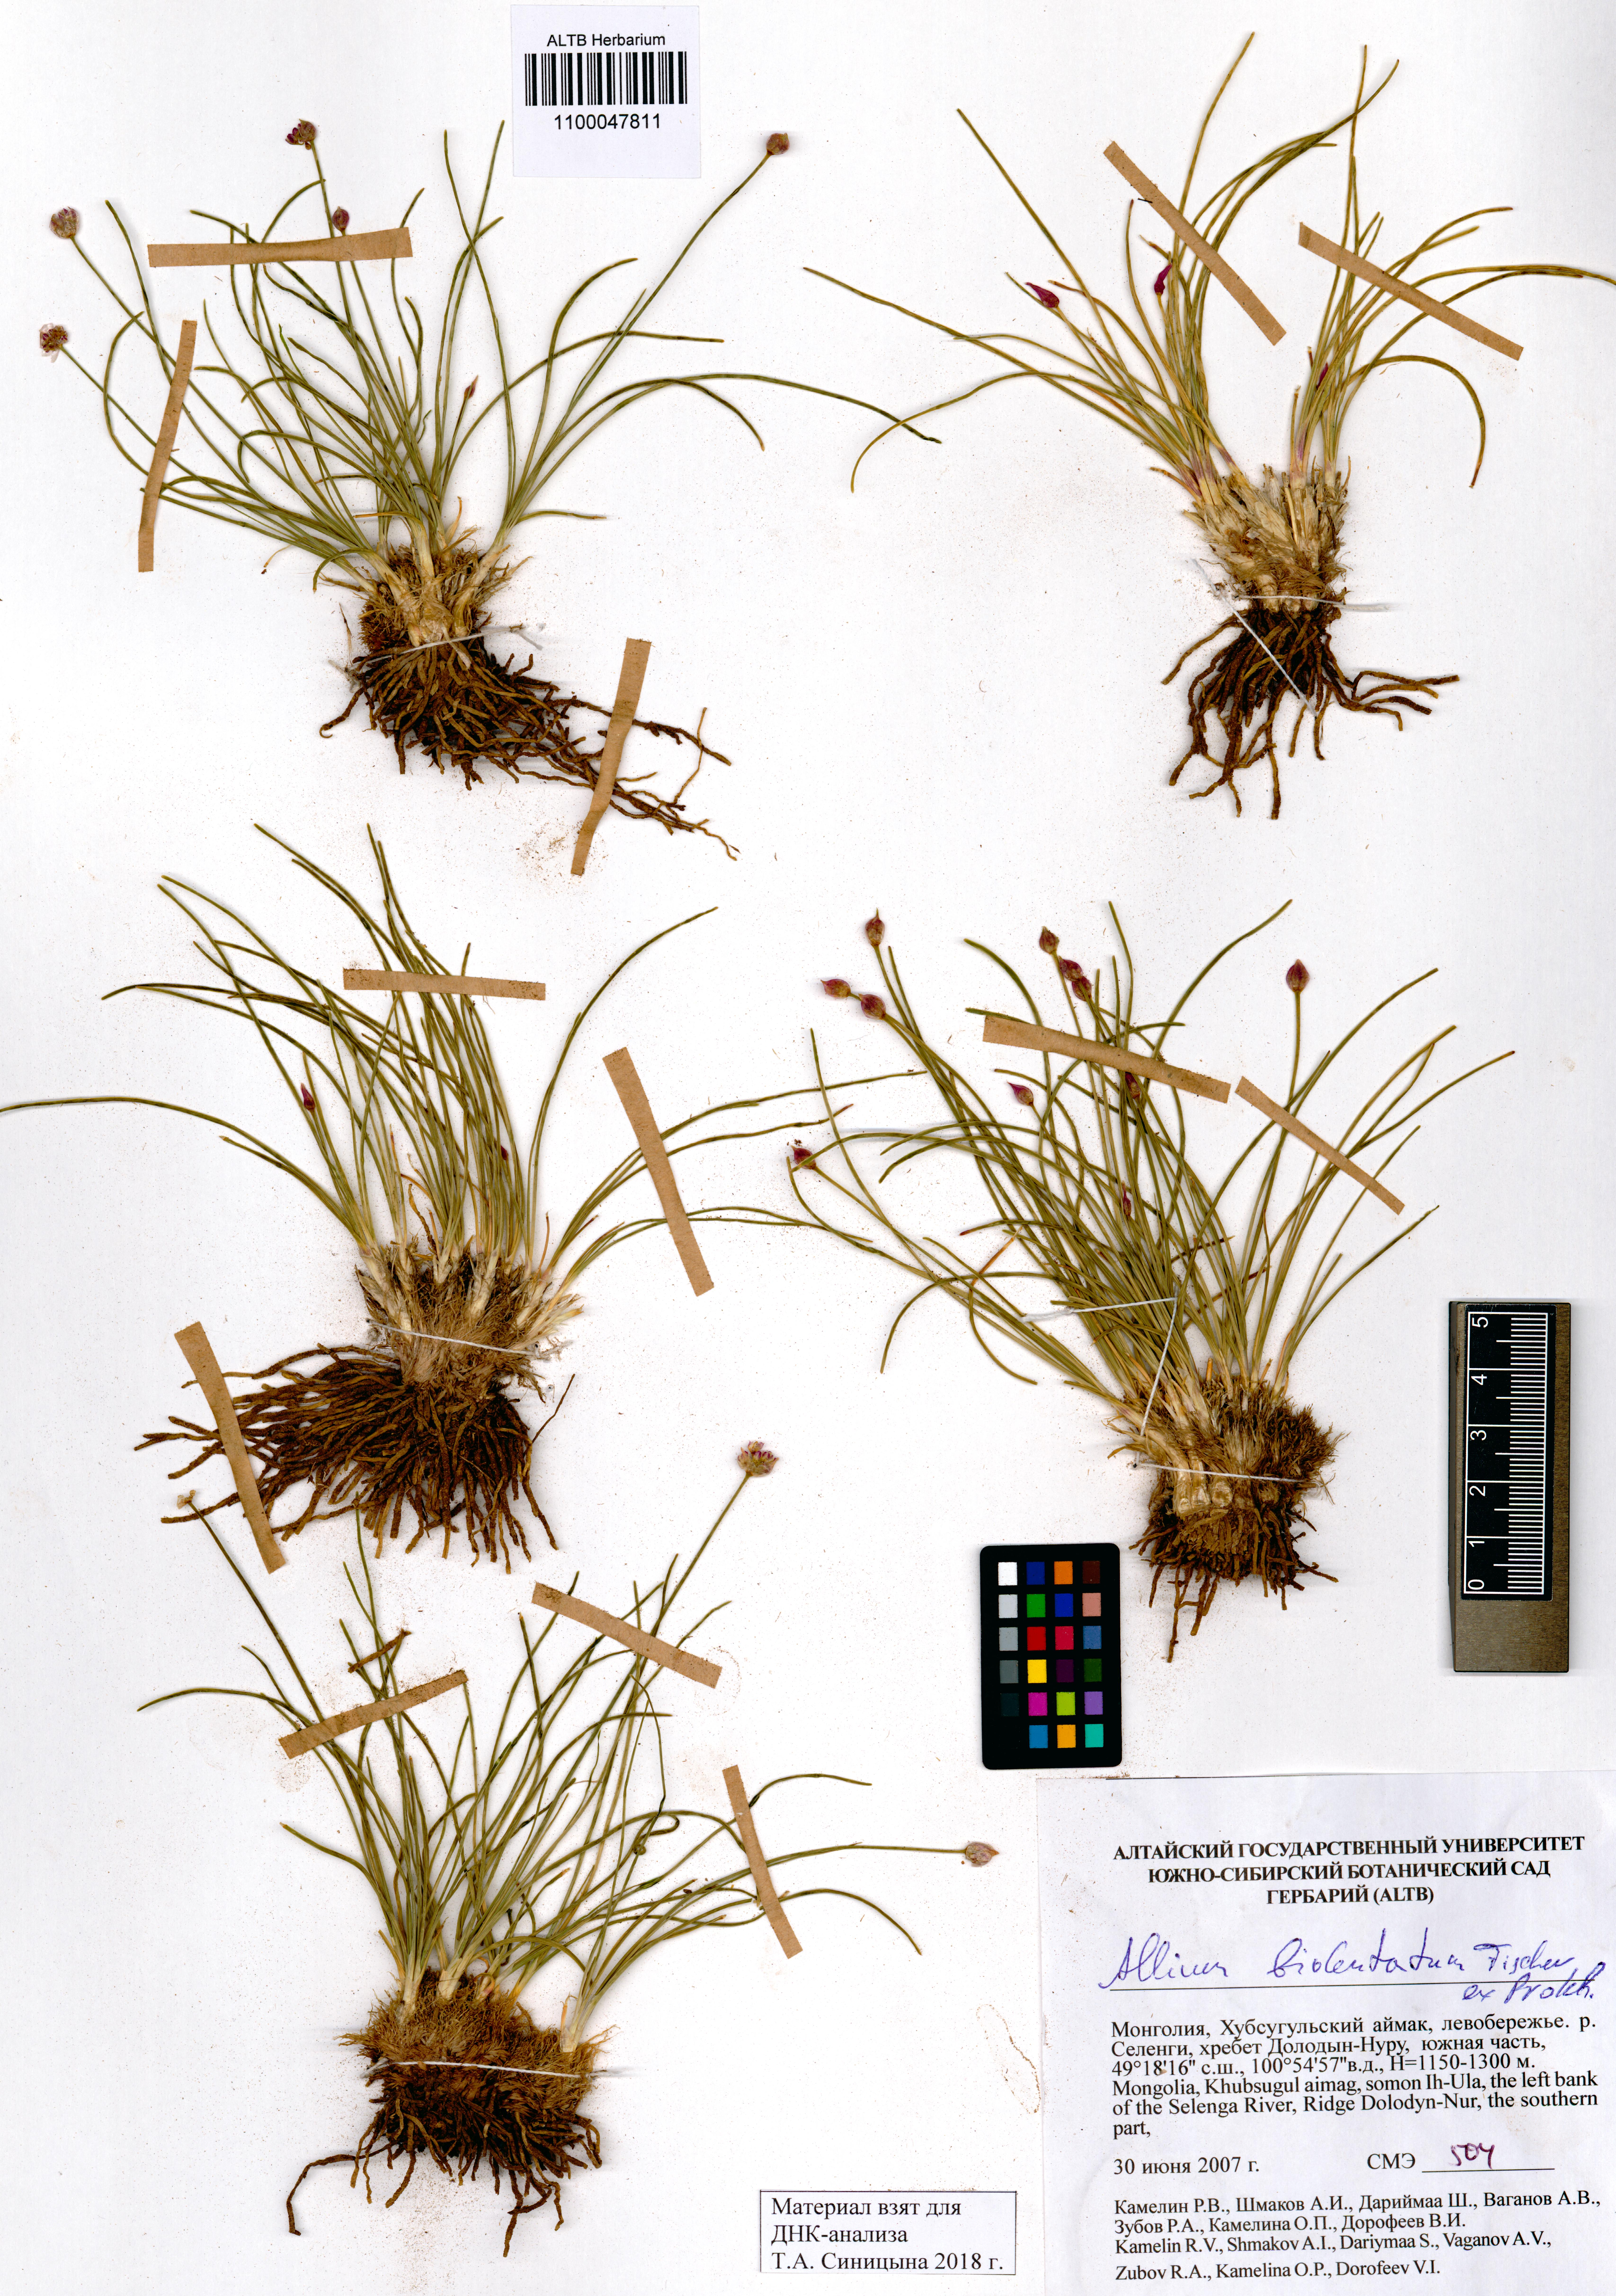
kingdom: Plantae
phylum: Tracheophyta
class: Liliopsida
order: Asparagales
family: Amaryllidaceae
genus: Allium
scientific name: Allium bidentatum
